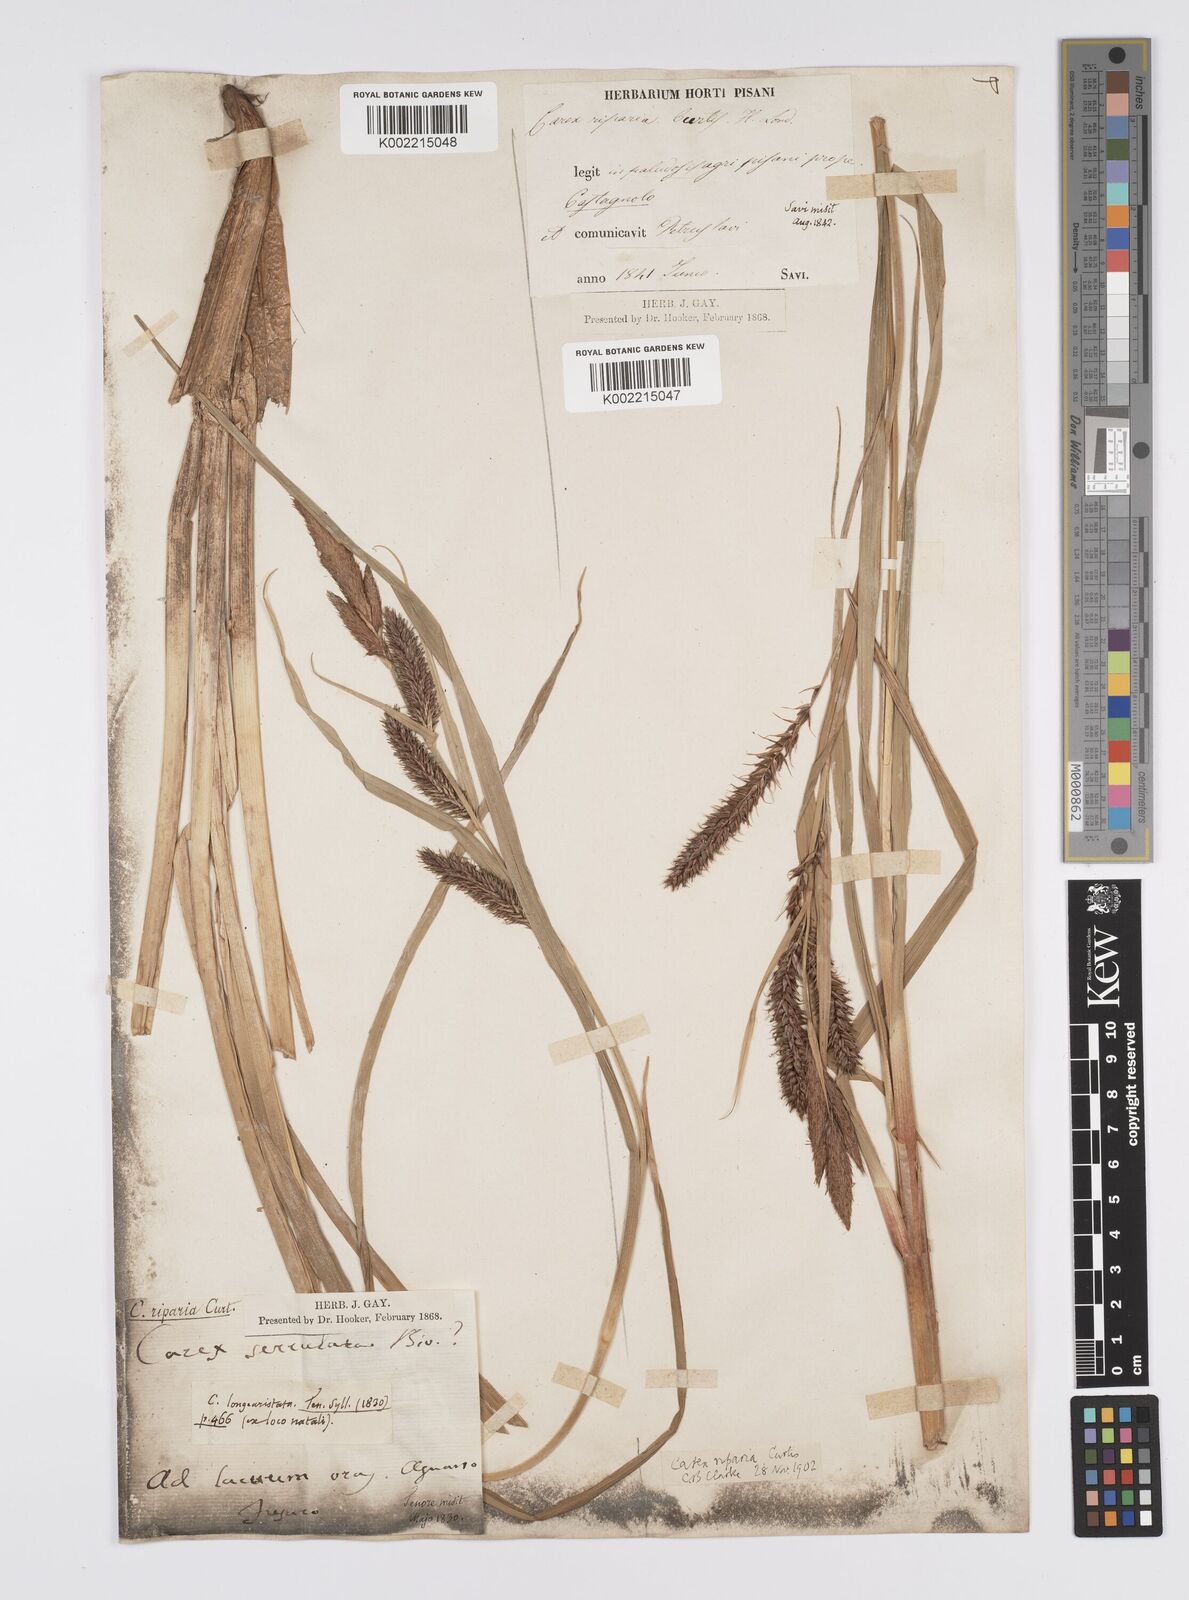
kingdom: Plantae
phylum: Tracheophyta
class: Liliopsida
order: Poales
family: Cyperaceae
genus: Carex
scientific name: Carex riparia
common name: Greater pond-sedge
